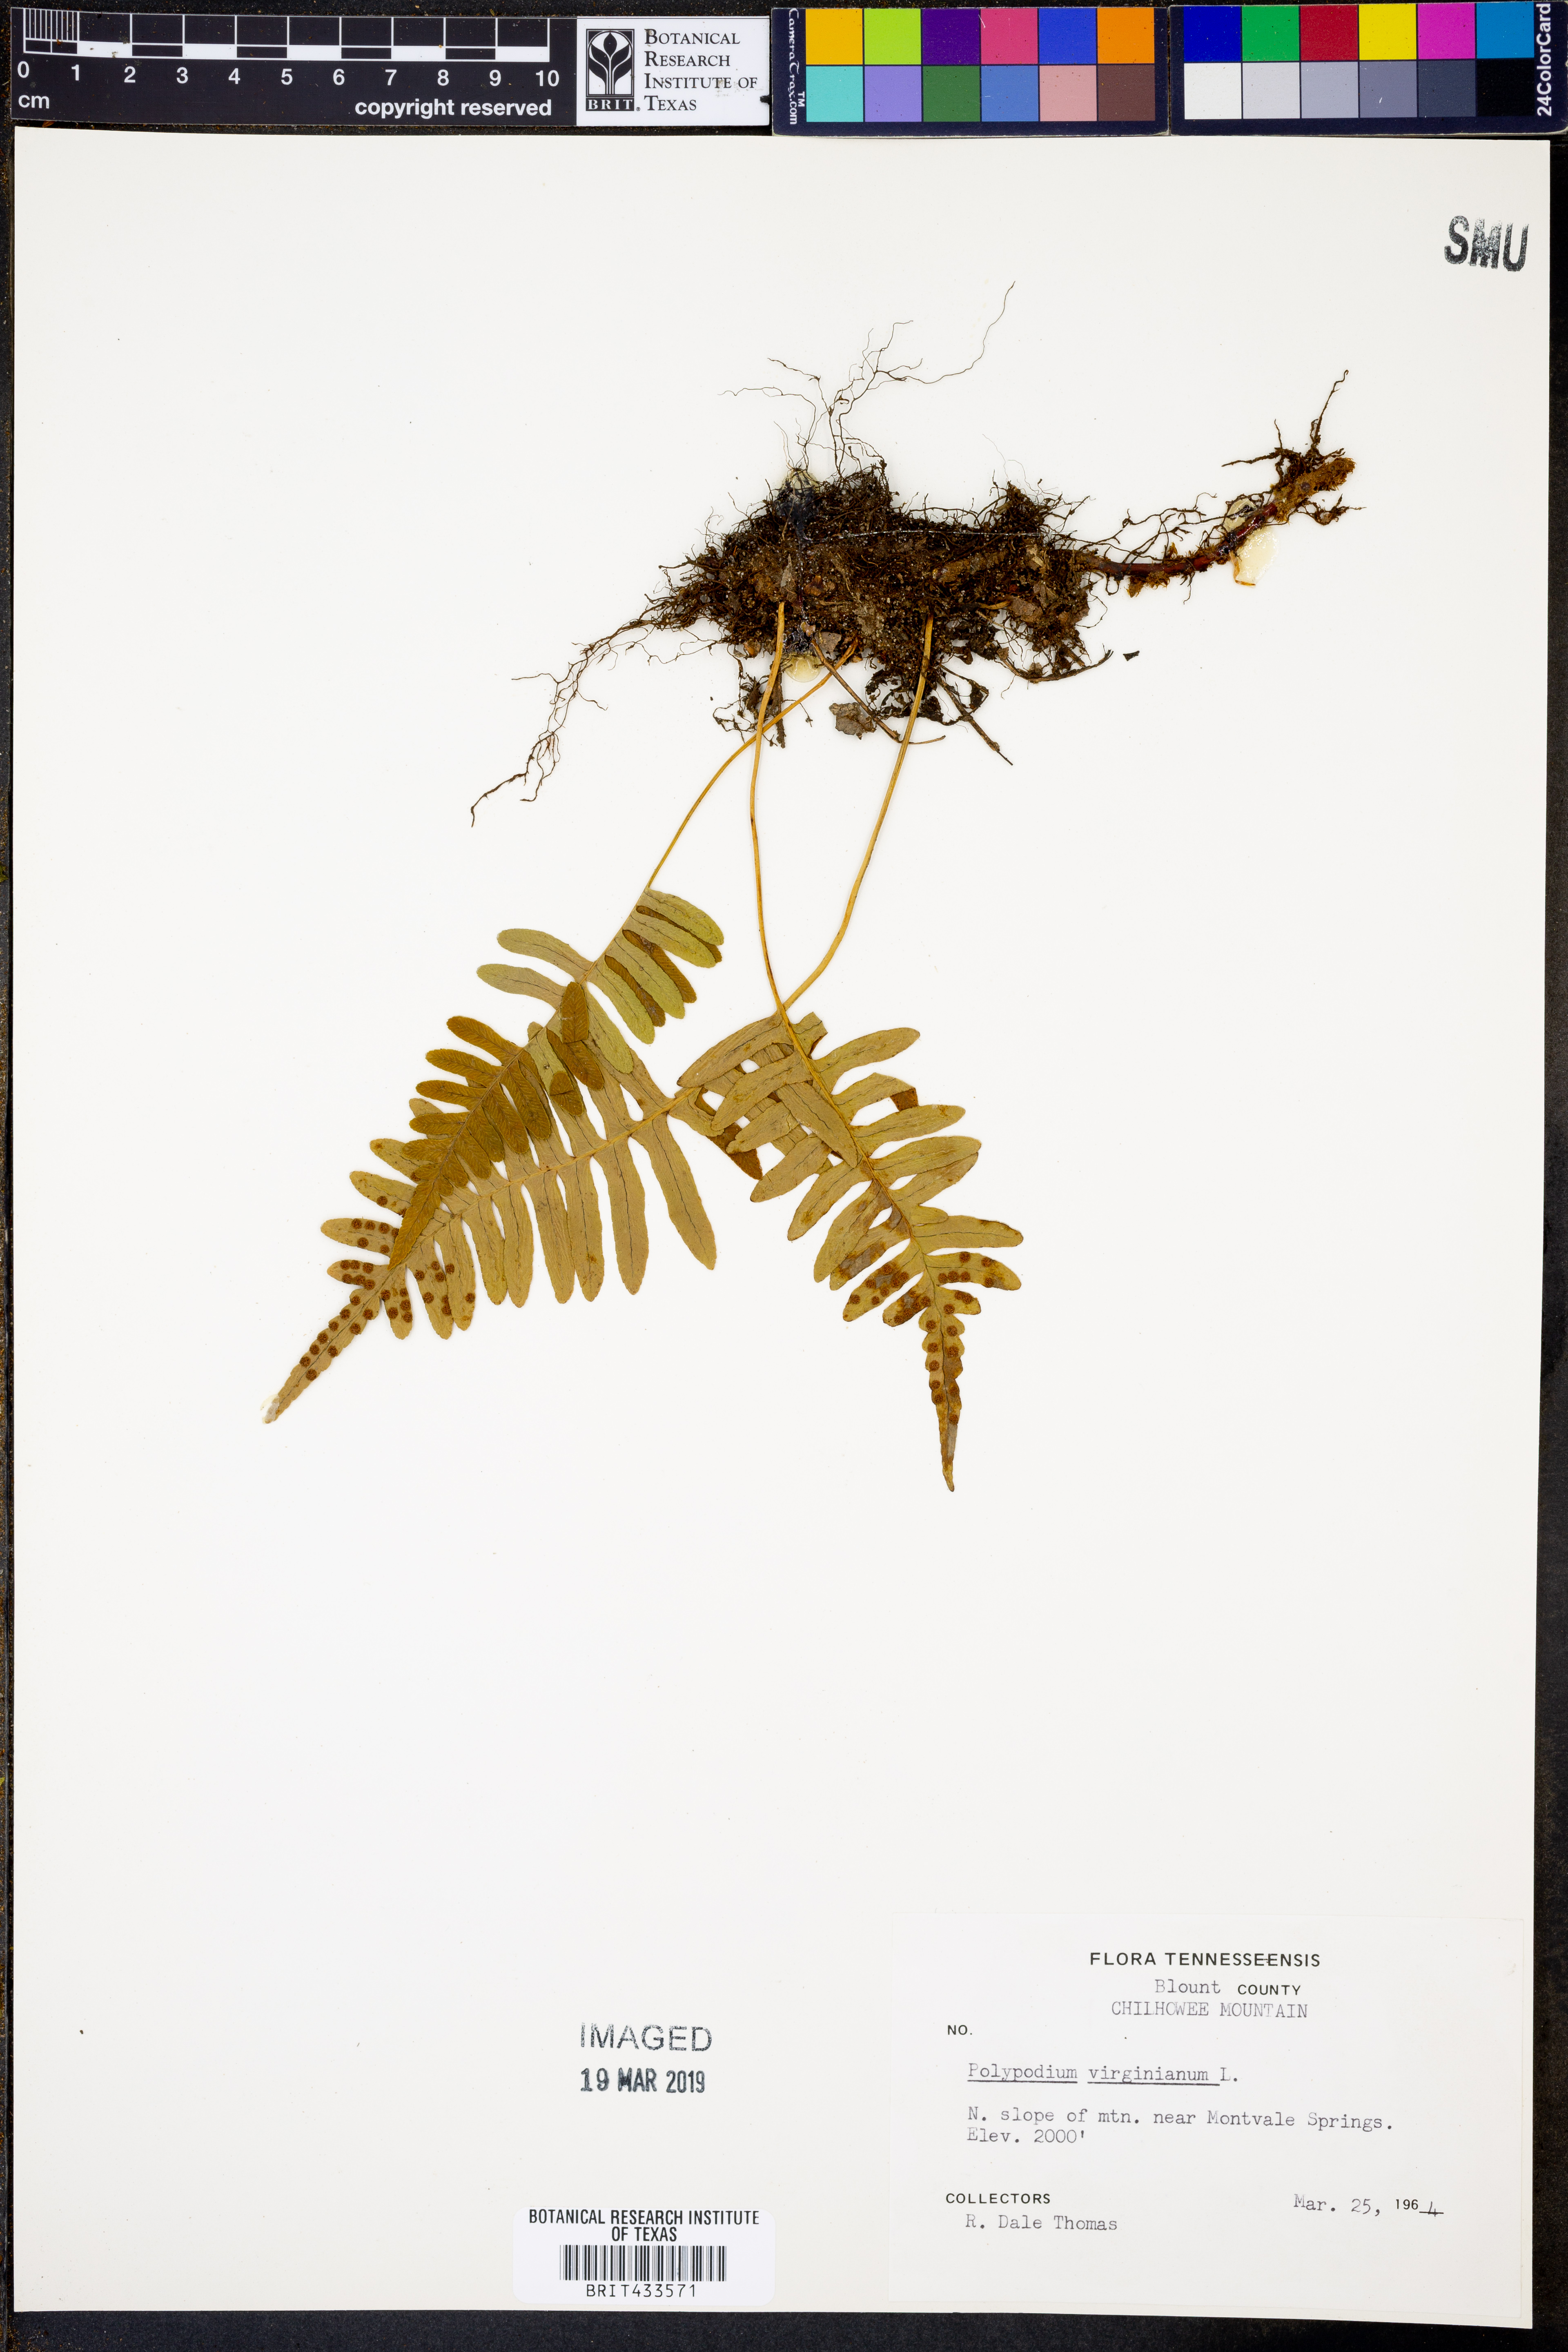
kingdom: Plantae
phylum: Tracheophyta
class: Polypodiopsida
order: Polypodiales
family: Polypodiaceae
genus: Polypodium
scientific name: Polypodium virginianum
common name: American wall fern
